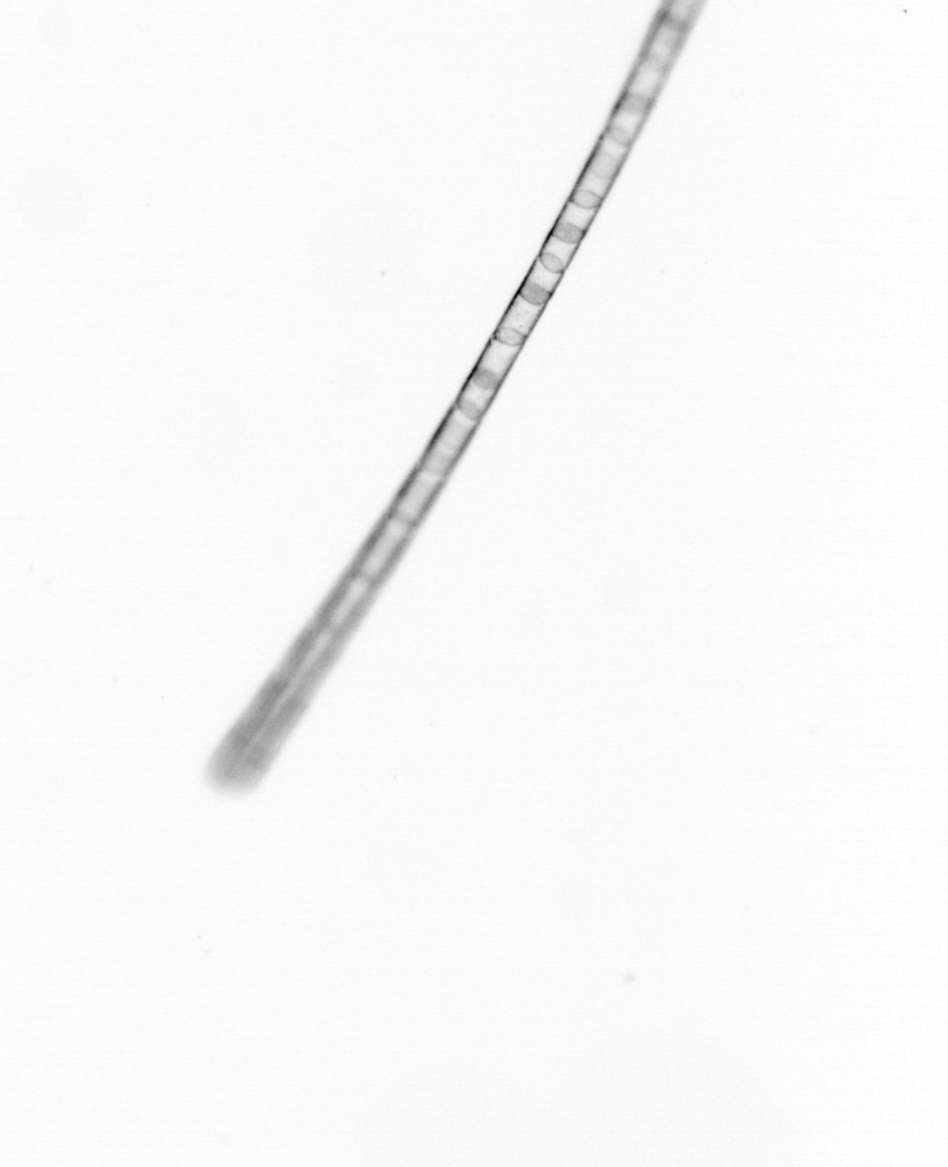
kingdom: Chromista
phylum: Ochrophyta
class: Bacillariophyceae
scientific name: Bacillariophyceae
